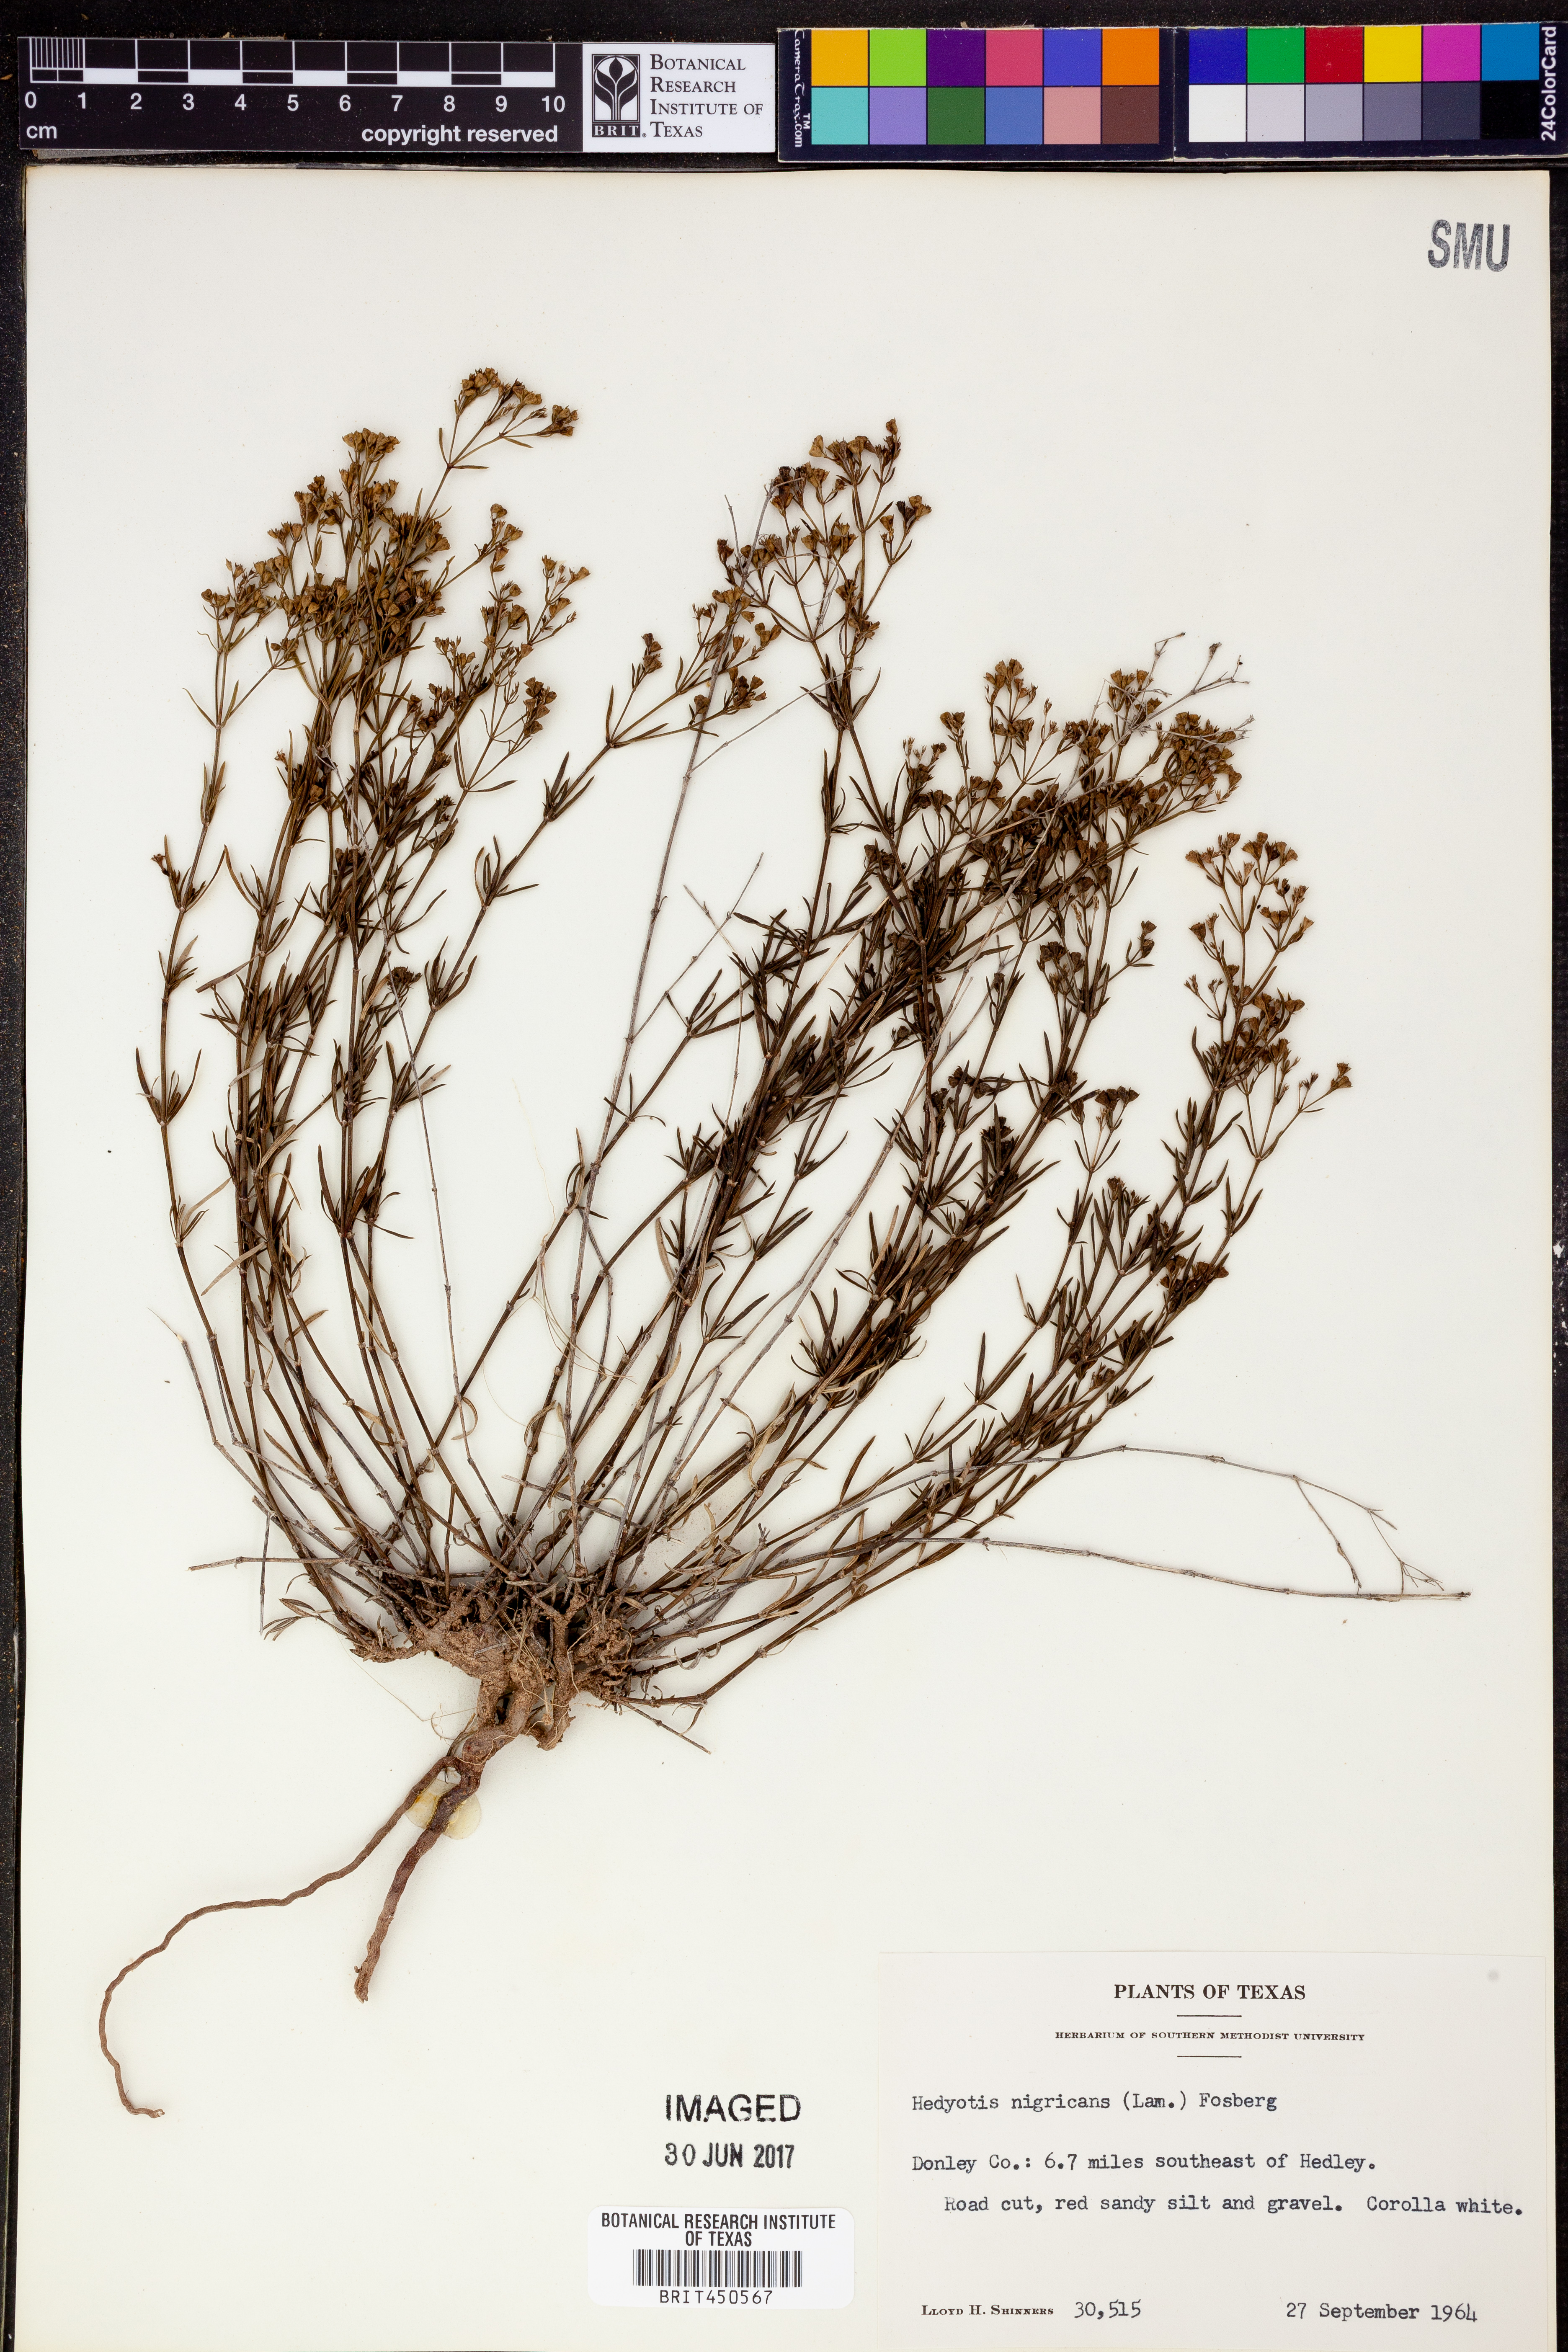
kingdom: Plantae
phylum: Tracheophyta
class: Magnoliopsida
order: Gentianales
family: Rubiaceae
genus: Stenaria
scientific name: Stenaria nigricans
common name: Diamondflowers
